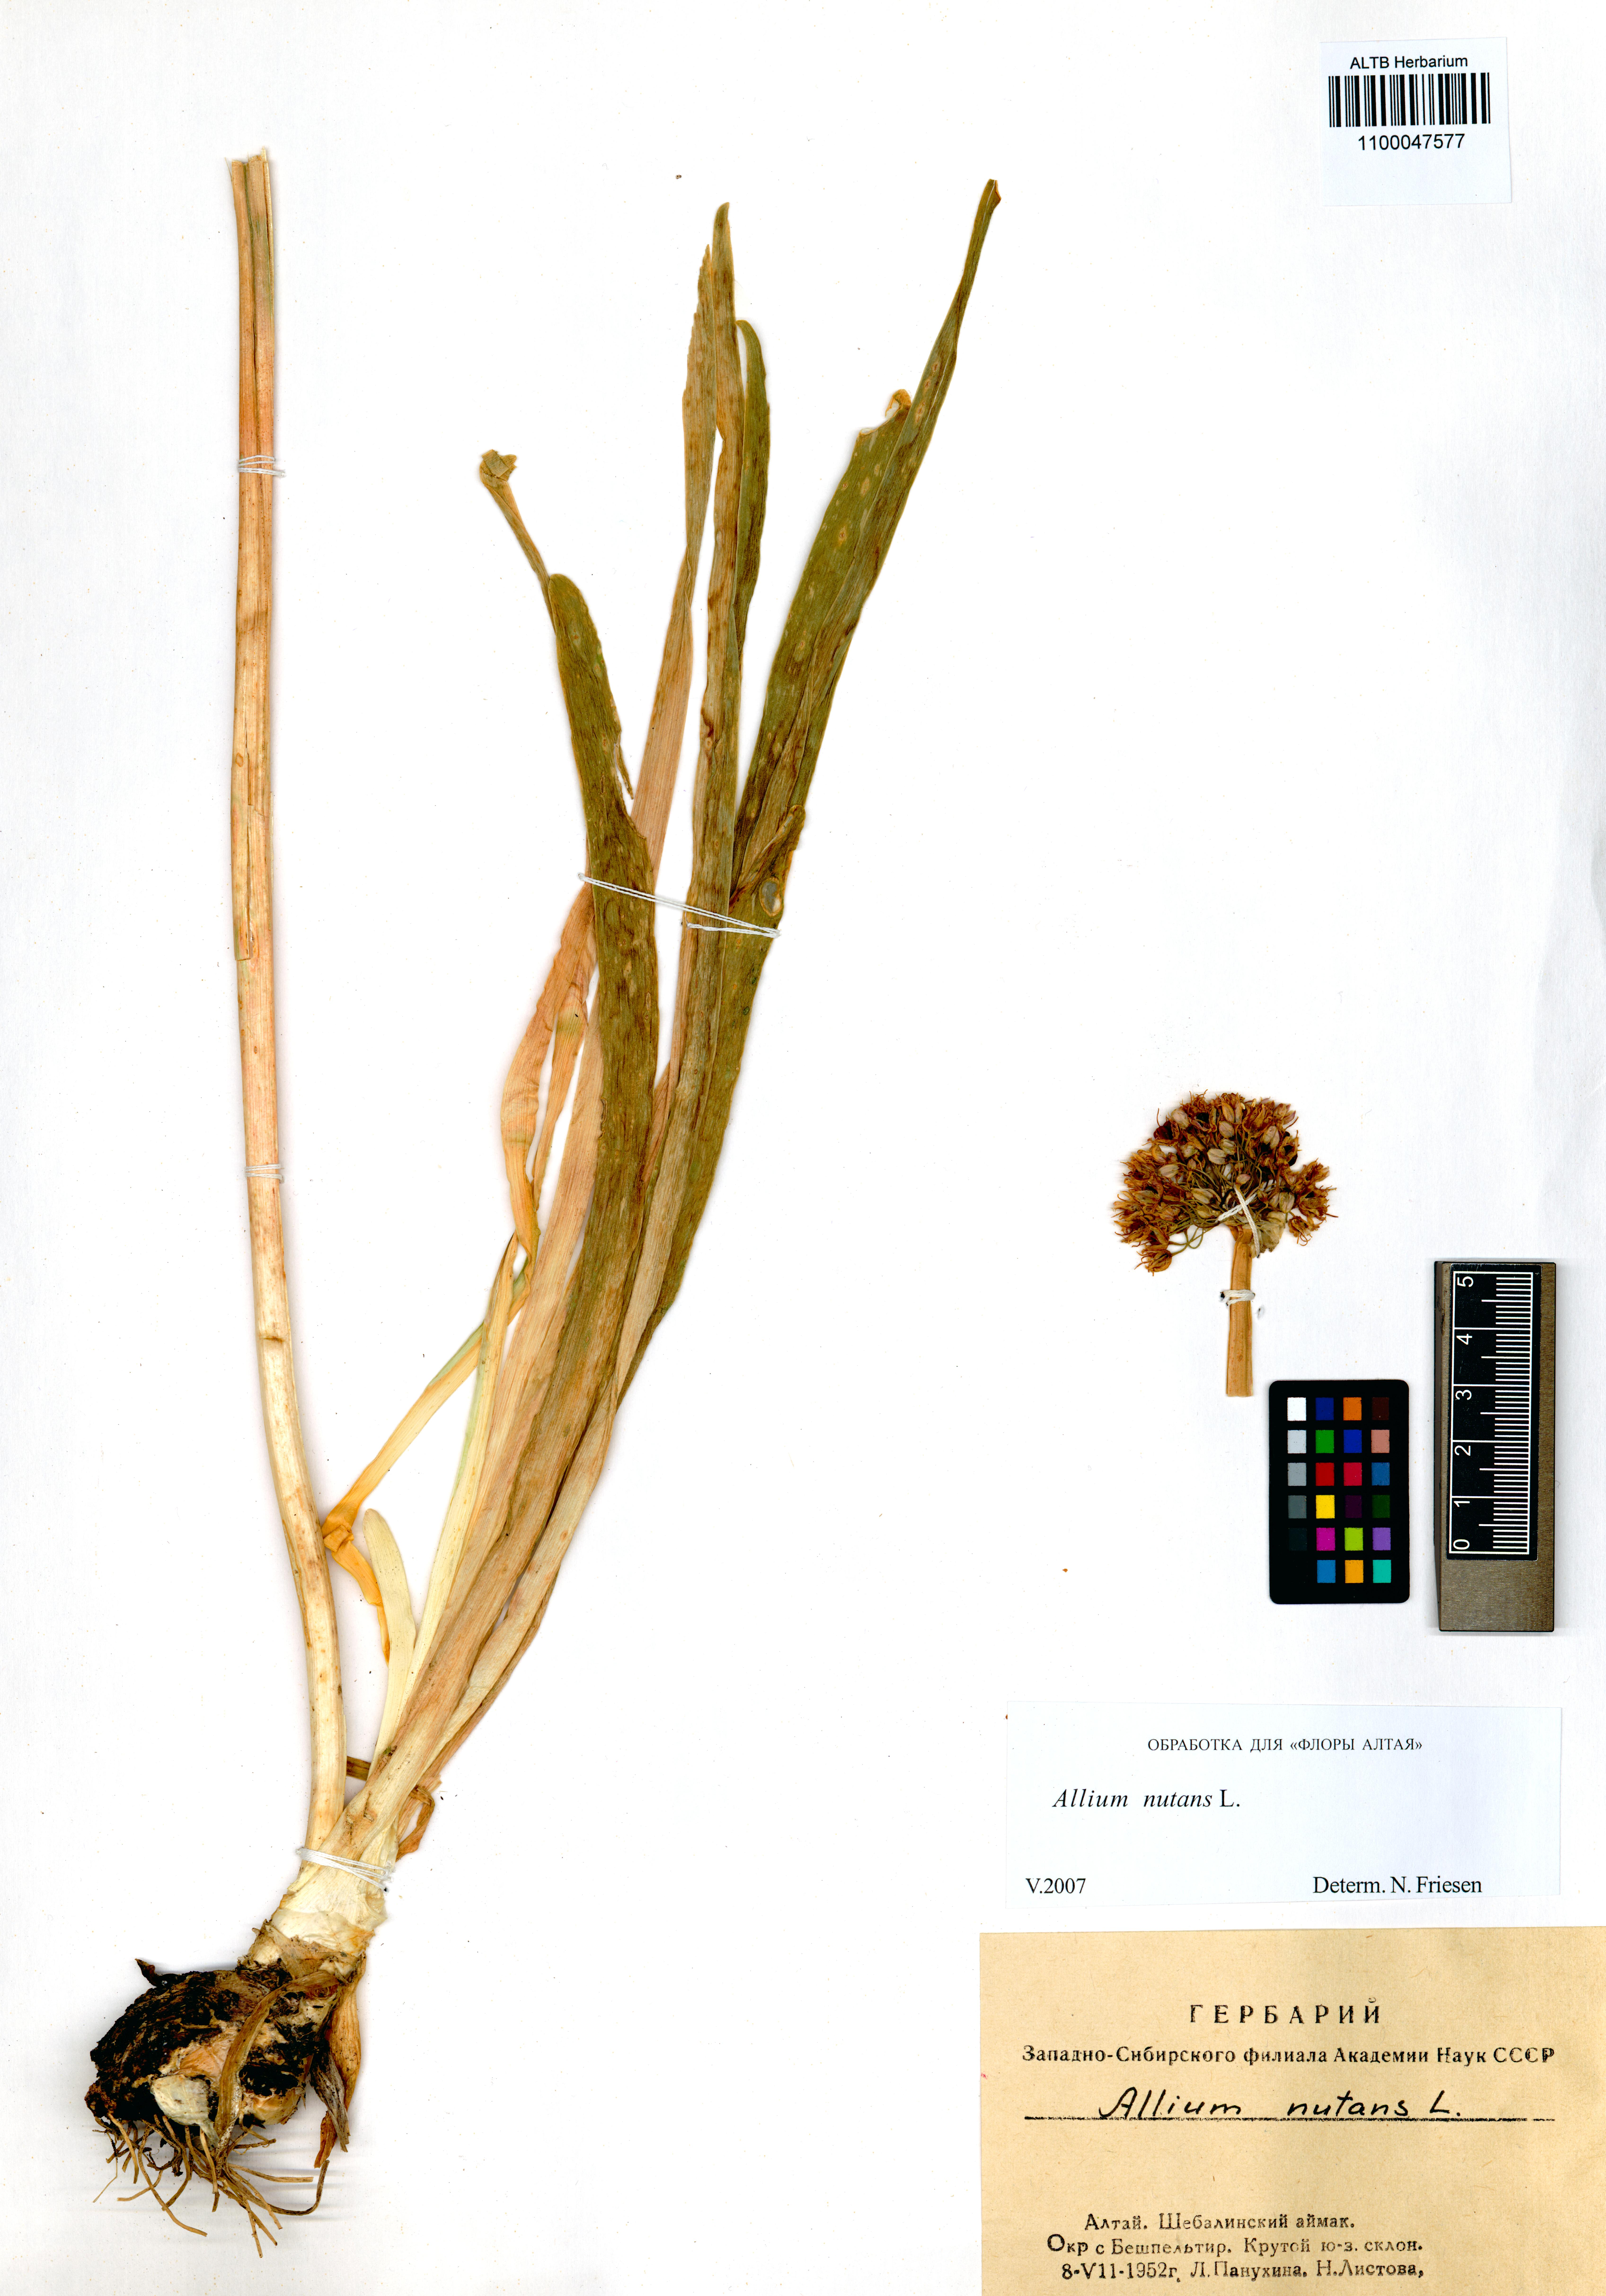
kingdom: Plantae
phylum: Tracheophyta
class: Liliopsida
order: Asparagales
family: Amaryllidaceae
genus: Allium
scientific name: Allium nutans
